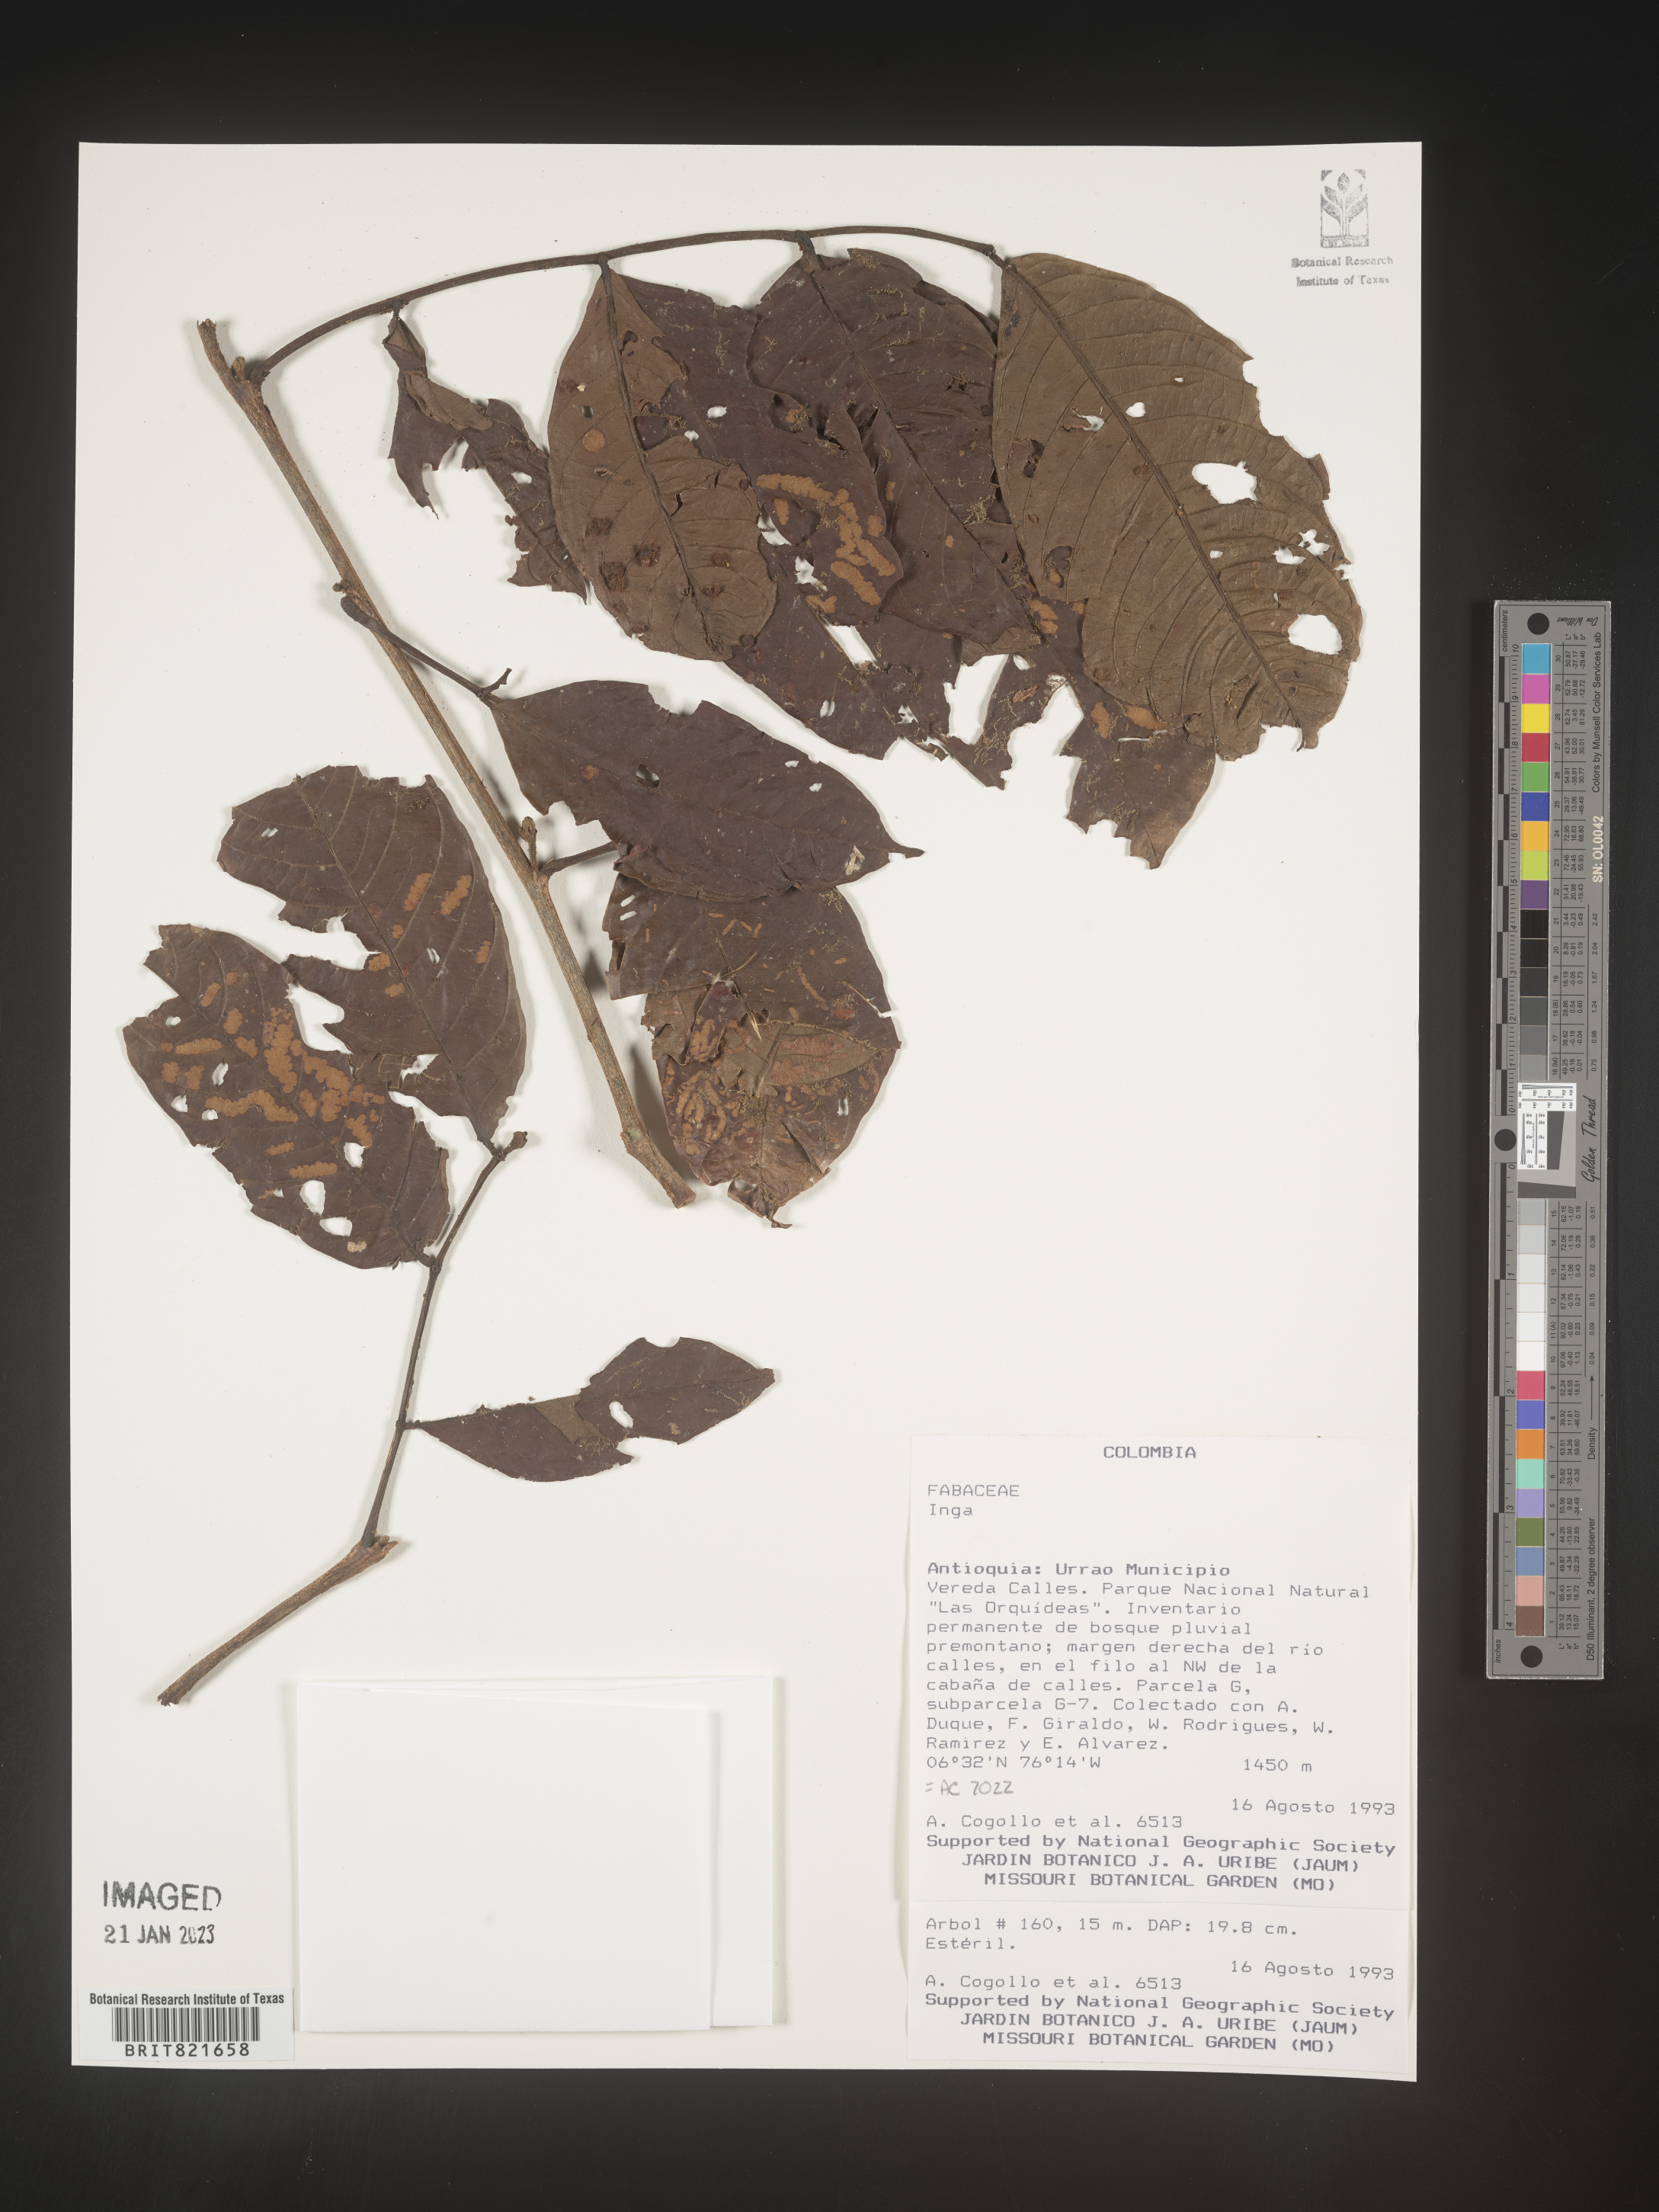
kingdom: Plantae
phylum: Tracheophyta
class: Magnoliopsida
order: Fabales
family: Fabaceae
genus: Inga
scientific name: Inga
